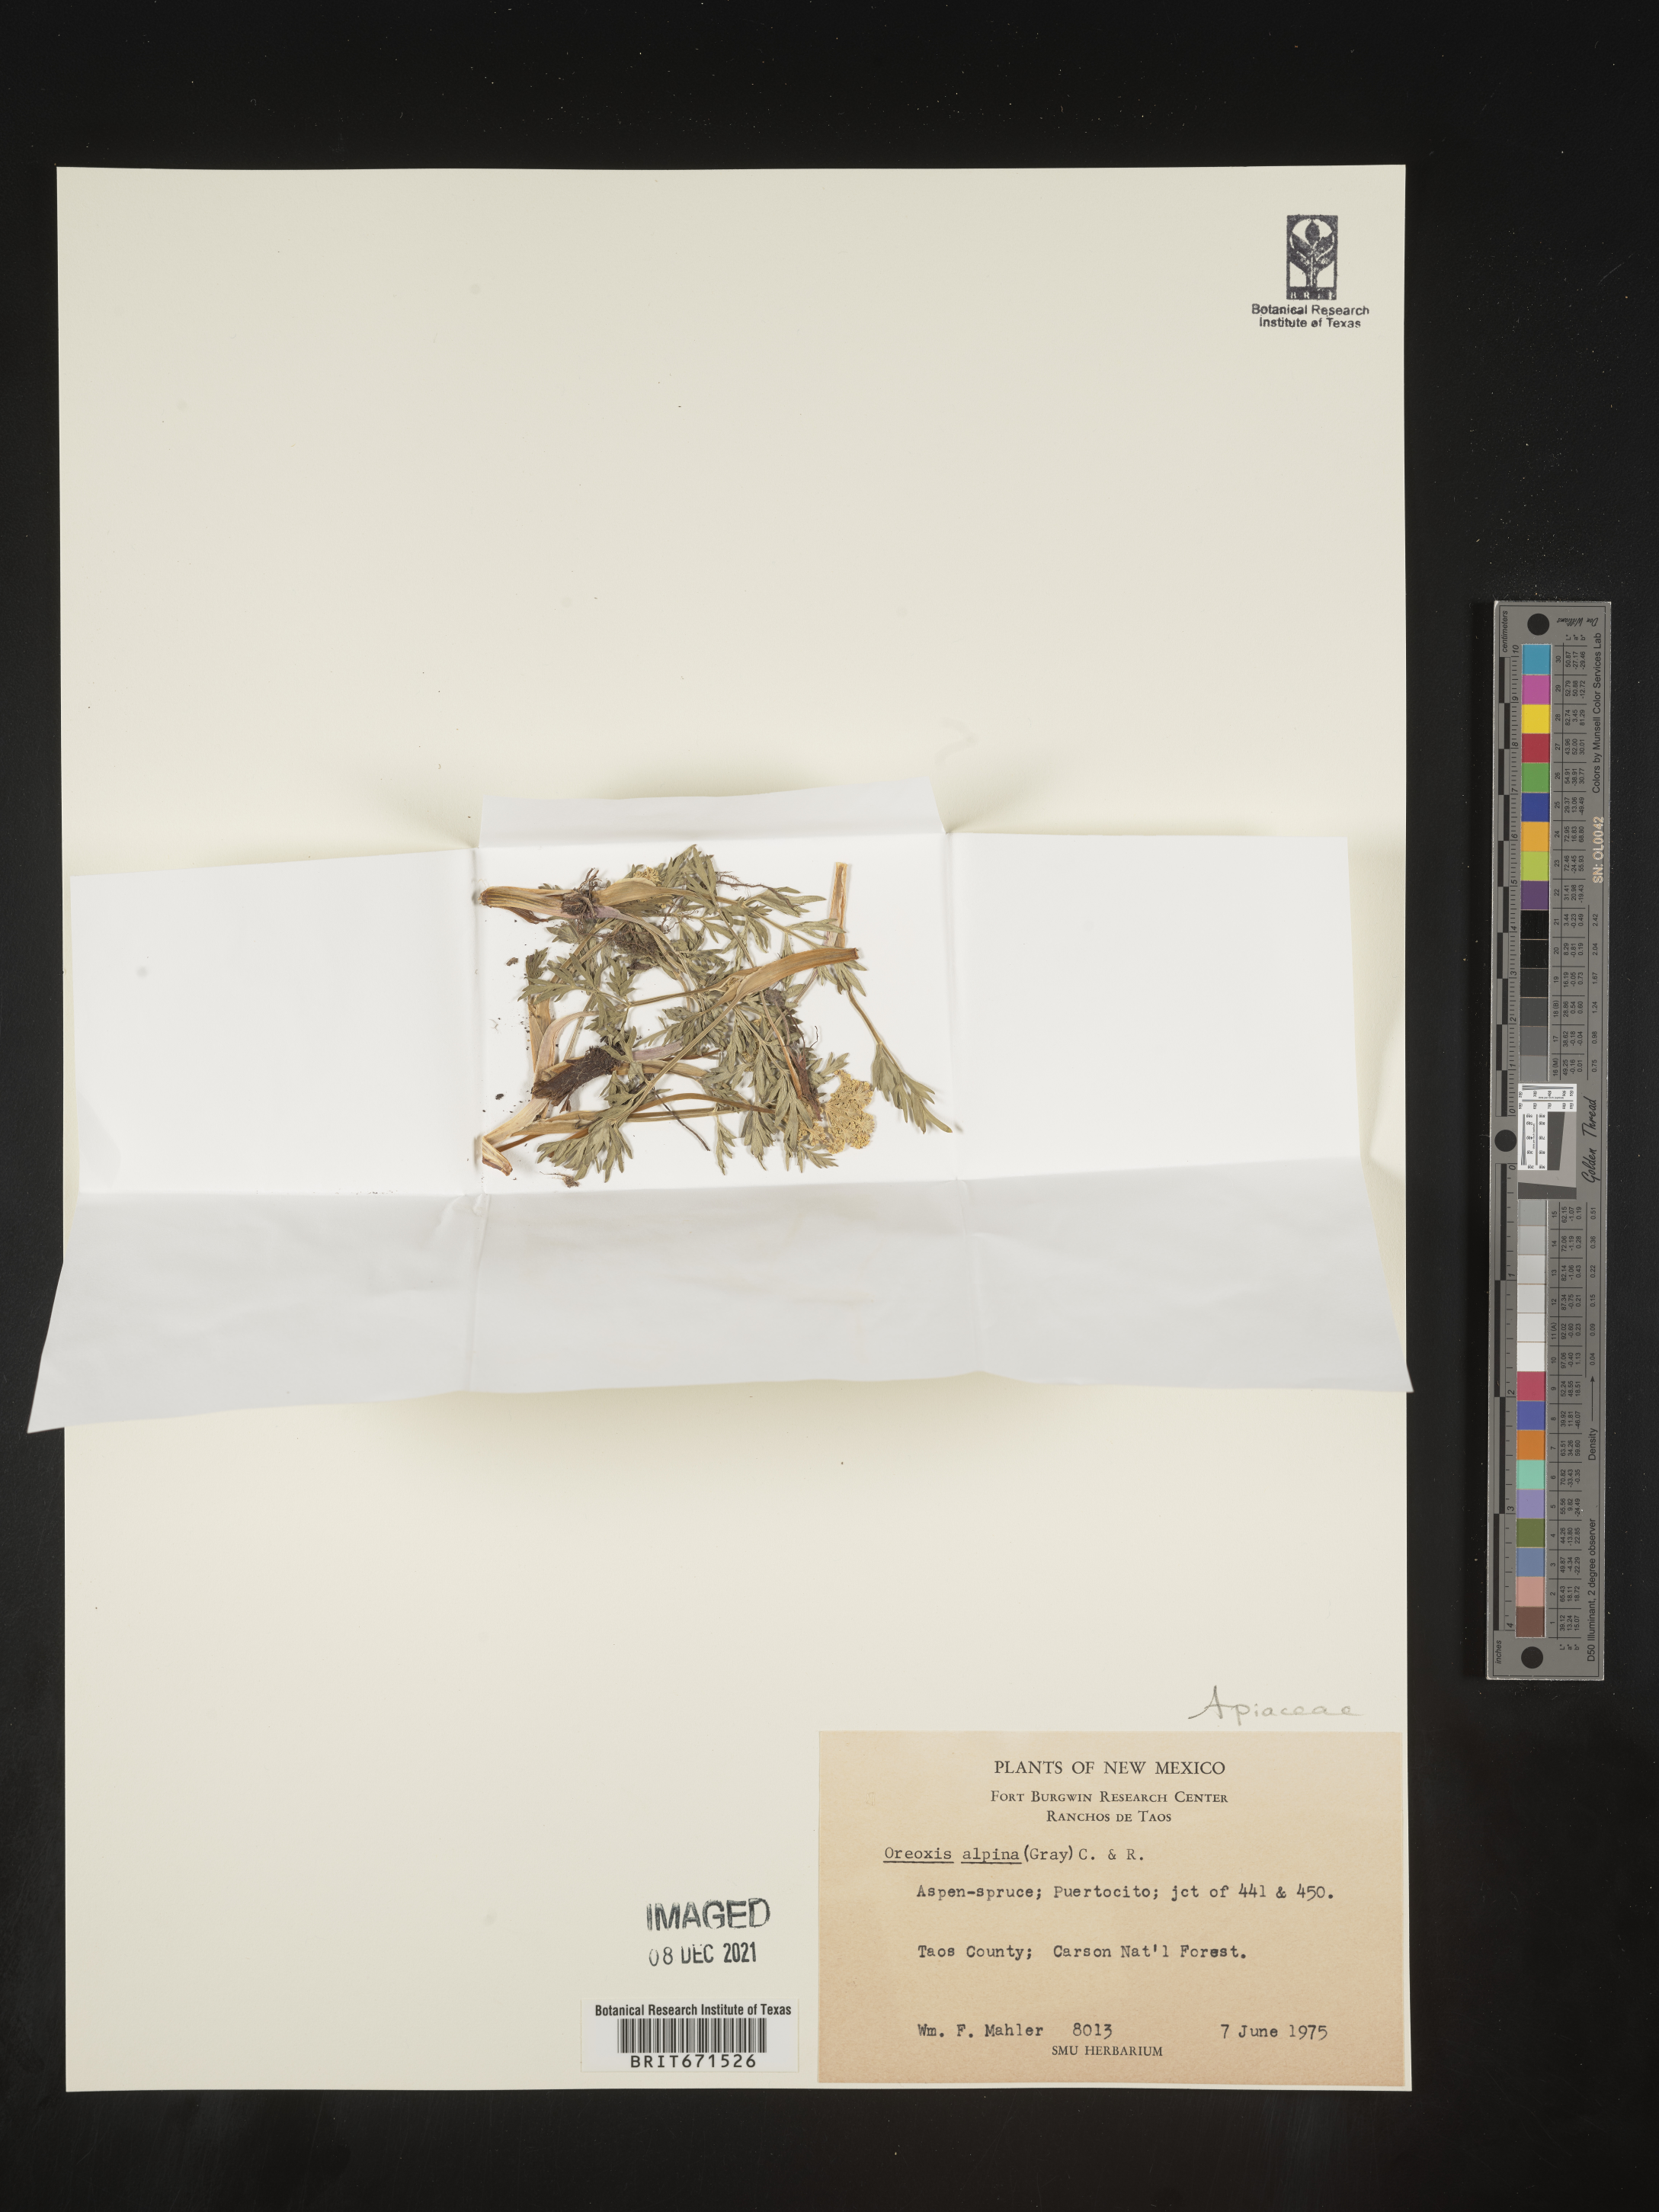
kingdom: Plantae
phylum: Tracheophyta
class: Magnoliopsida
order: Apiales
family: Apiaceae
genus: Oreoxis
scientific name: Oreoxis alpina
